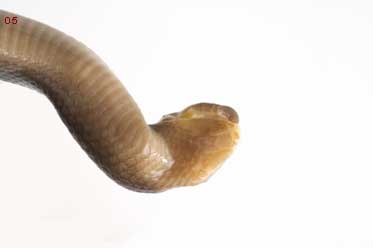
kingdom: Animalia
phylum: Chordata
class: Squamata
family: Atractaspididae
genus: Atractaspis
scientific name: Atractaspis bibronii
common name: Bibron's burrowing asp
